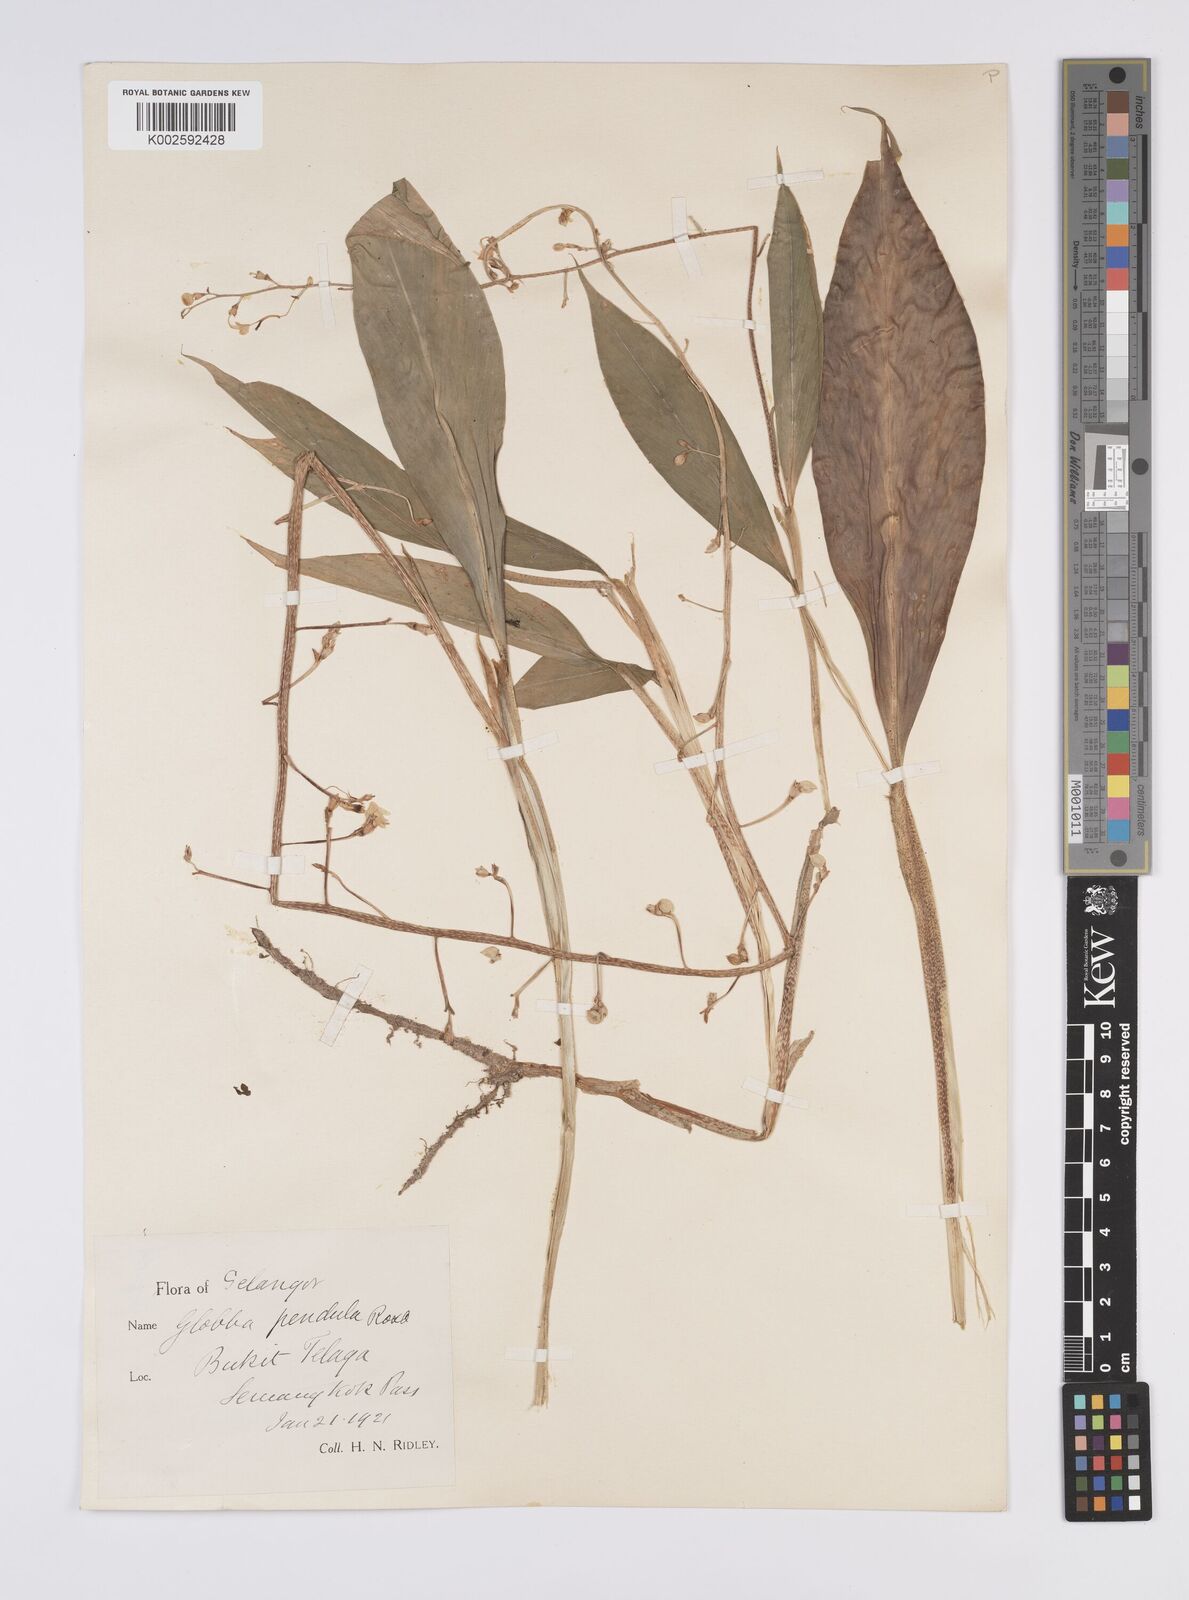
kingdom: Plantae
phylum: Tracheophyta
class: Liliopsida
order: Zingiberales
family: Zingiberaceae
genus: Globba
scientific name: Globba pendula
